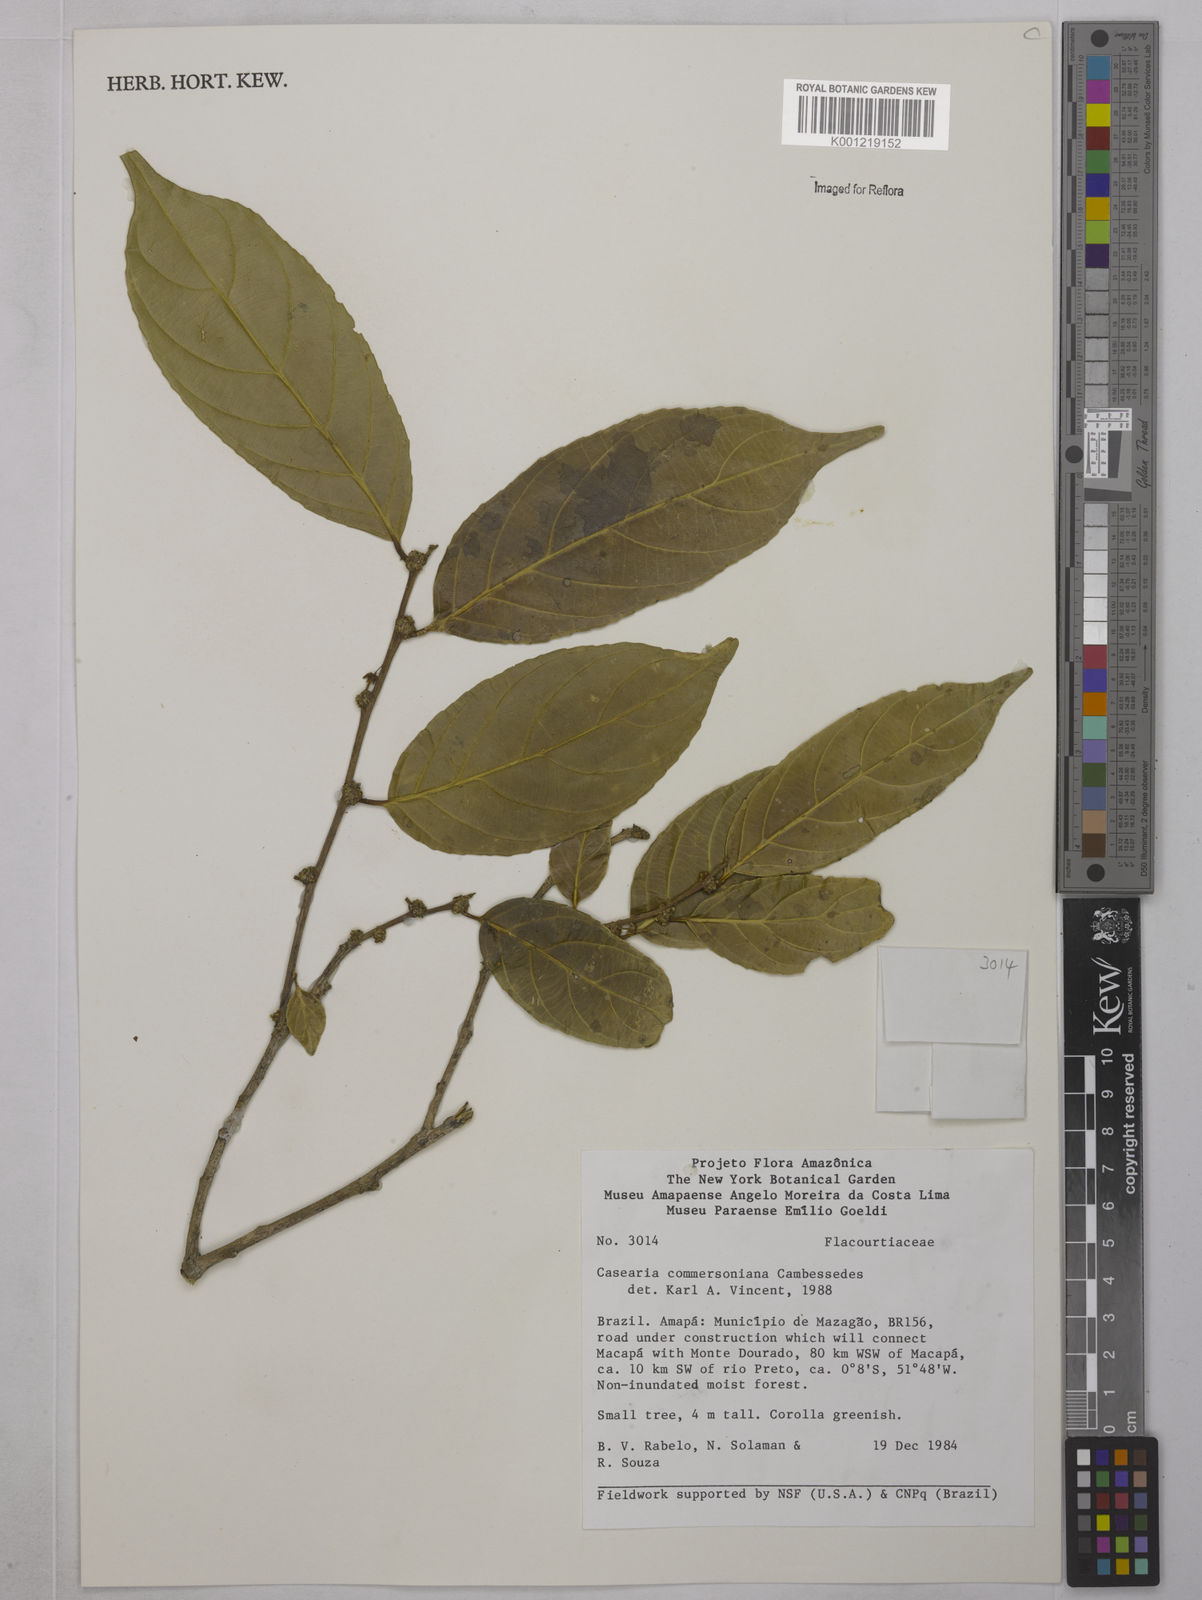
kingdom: Plantae
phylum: Tracheophyta
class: Magnoliopsida
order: Malpighiales
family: Salicaceae
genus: Piparea
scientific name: Piparea dentata
